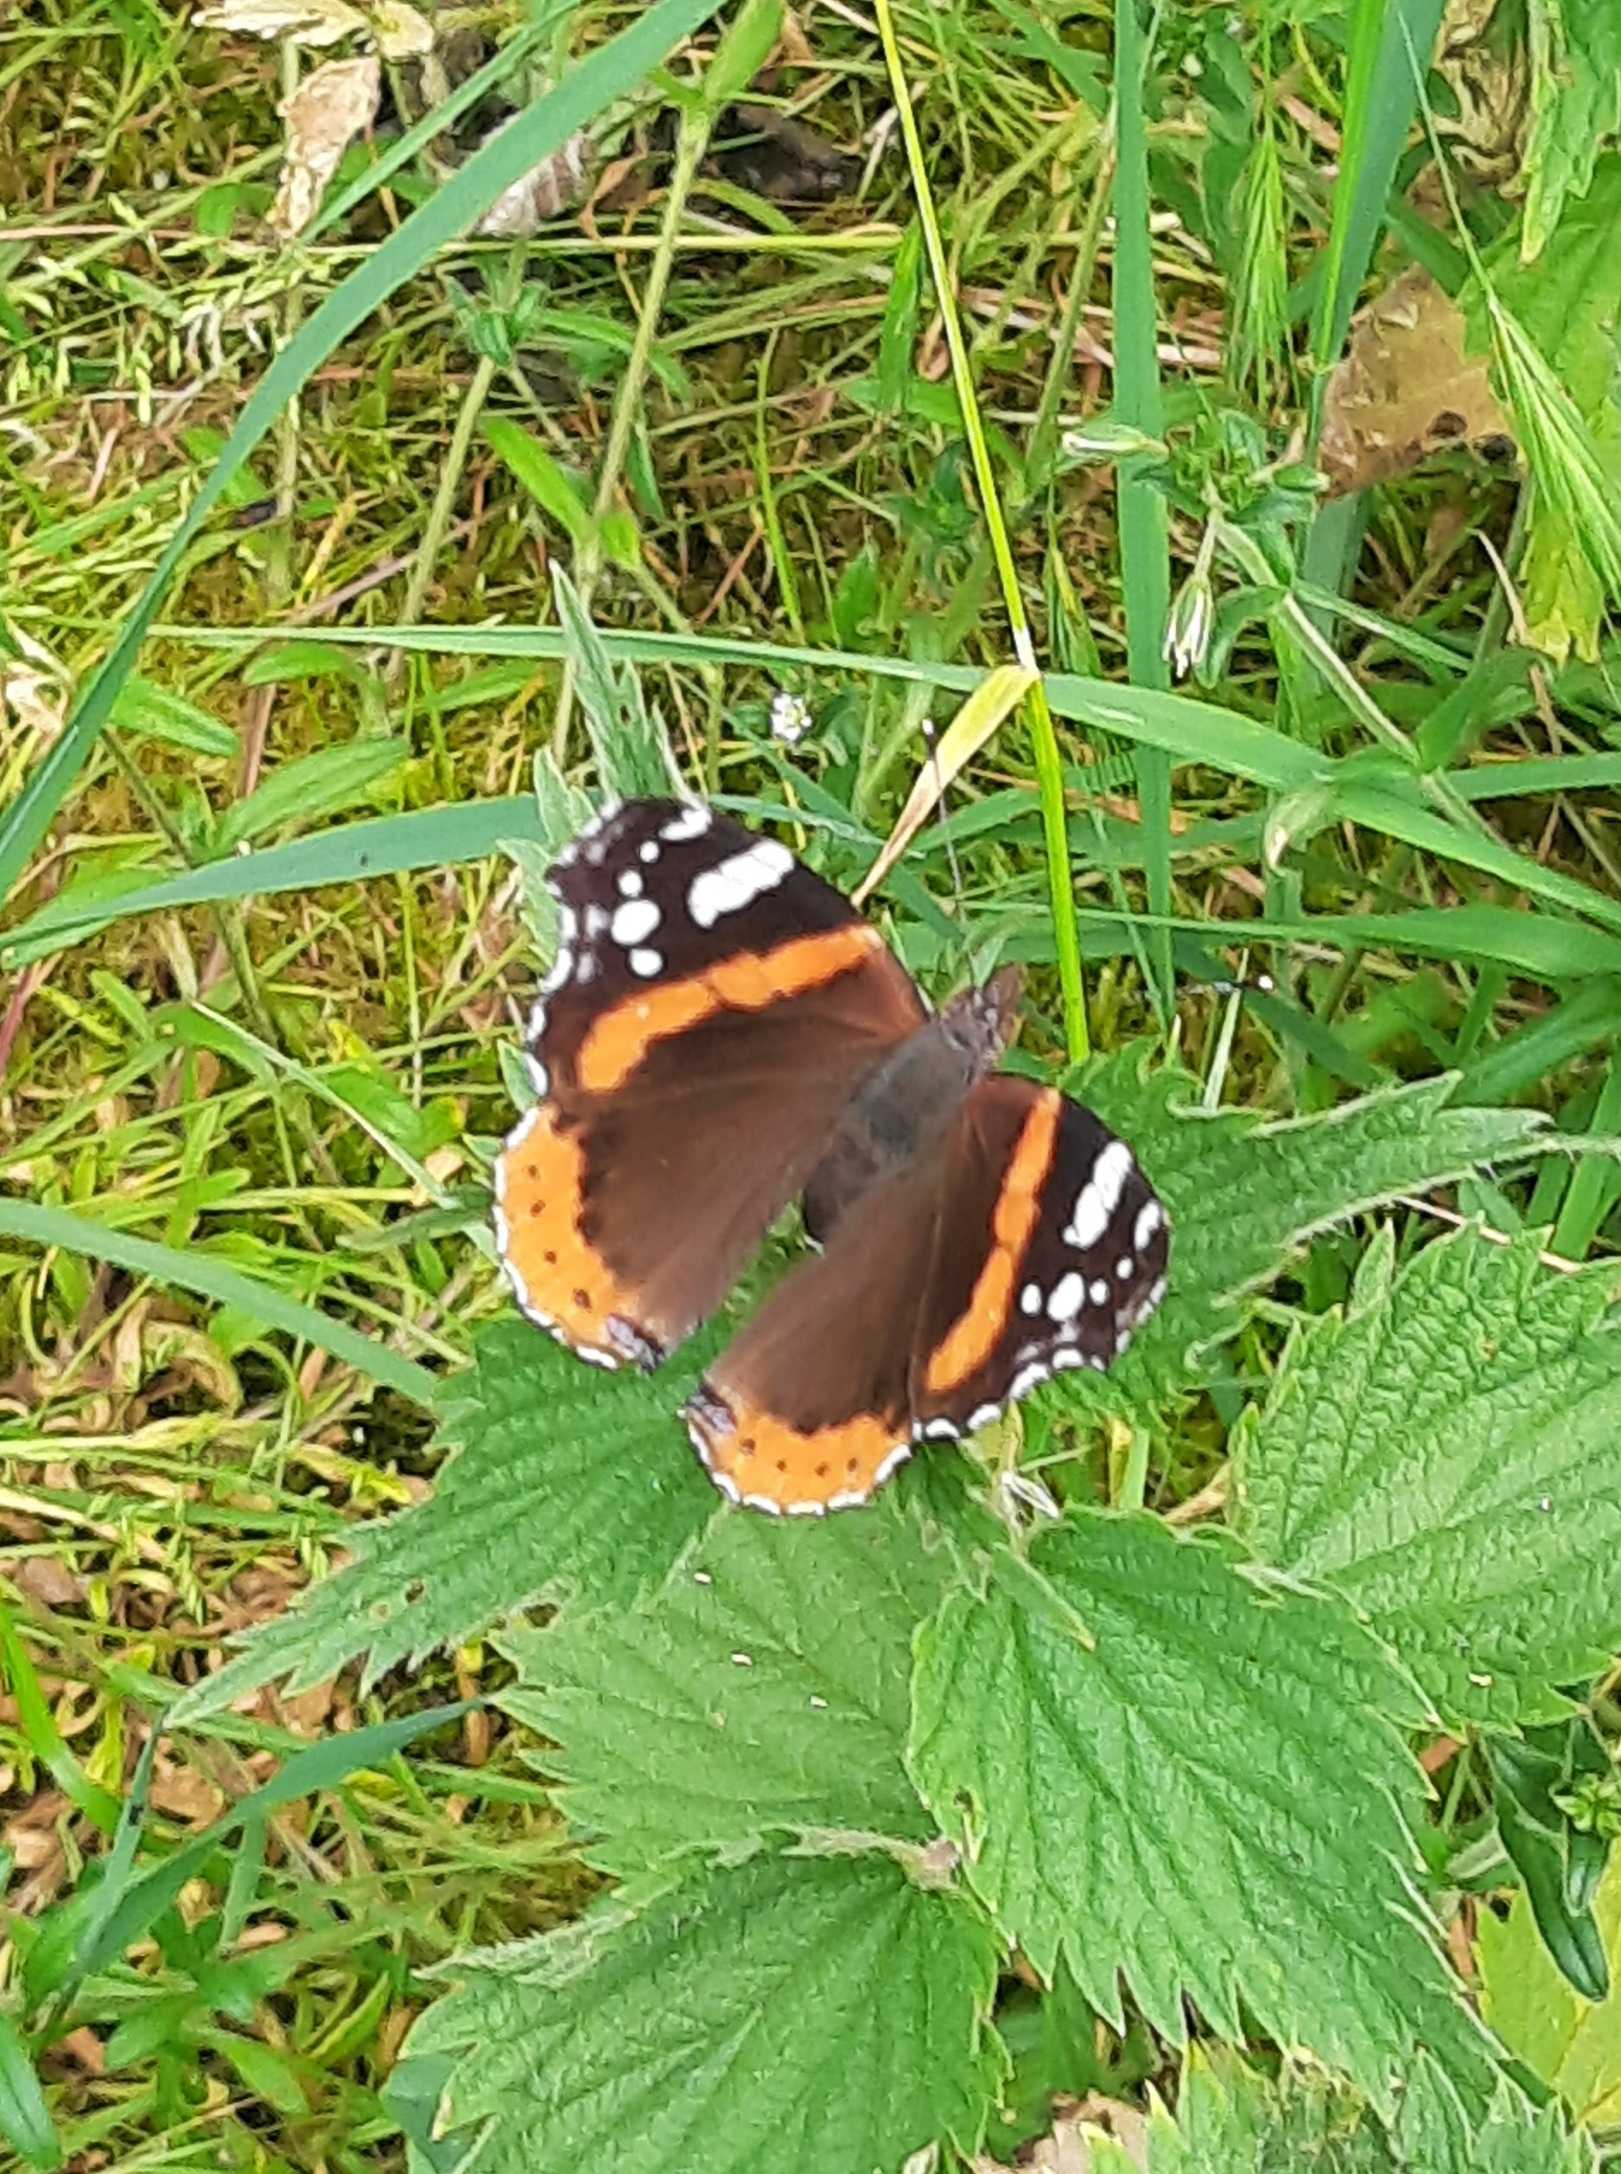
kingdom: Animalia
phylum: Arthropoda
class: Insecta
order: Lepidoptera
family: Nymphalidae
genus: Vanessa
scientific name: Vanessa atalanta
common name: Admiral
